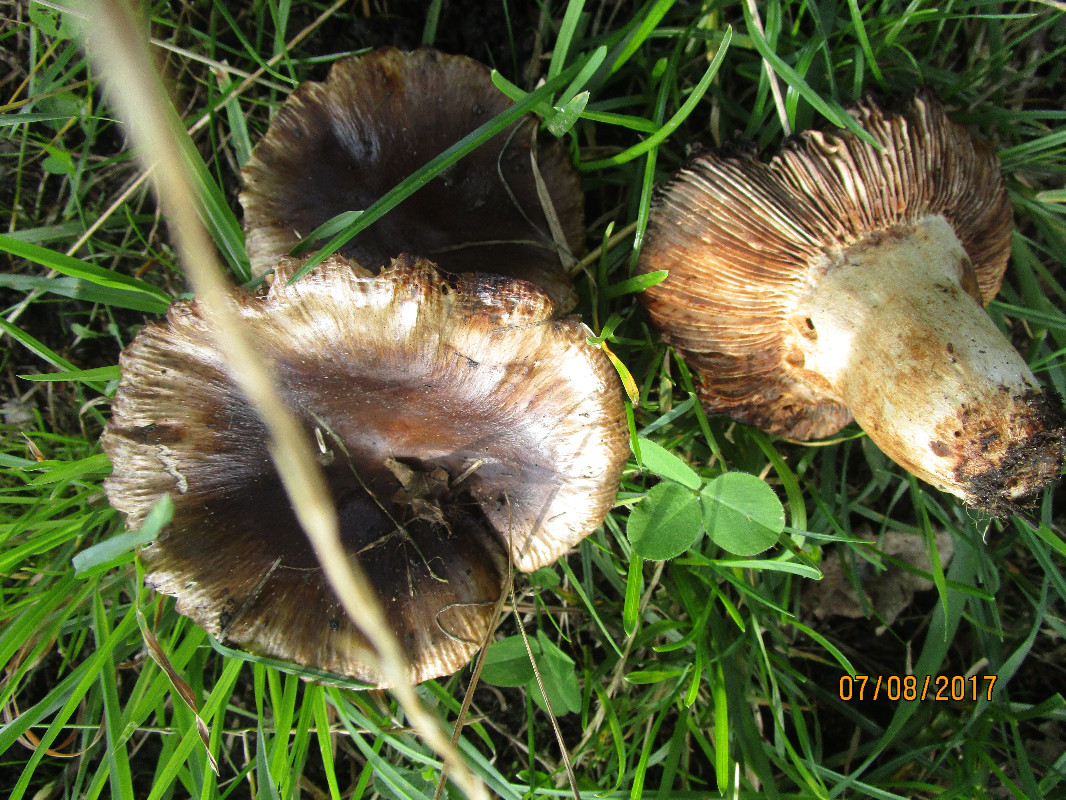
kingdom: Fungi
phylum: Basidiomycota
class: Agaricomycetes
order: Russulales
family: Russulaceae
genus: Russula
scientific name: Russula sororia
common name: brun kam-skørhat
